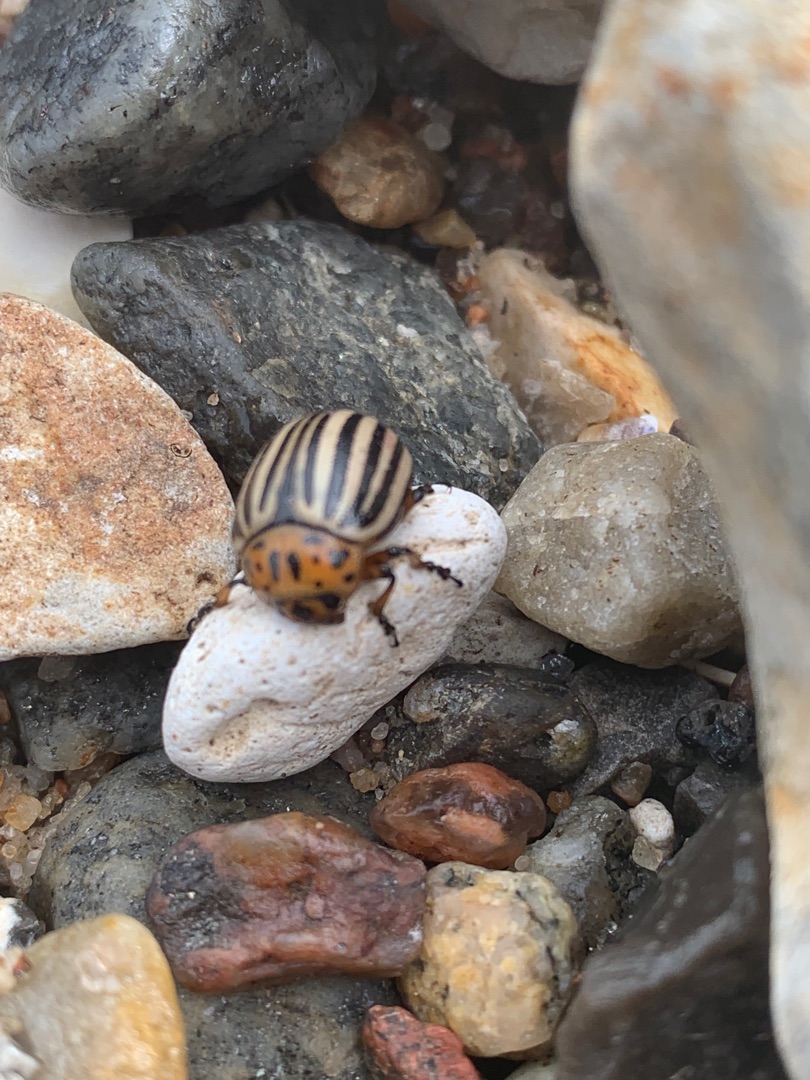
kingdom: Animalia
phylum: Arthropoda
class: Insecta
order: Coleoptera
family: Chrysomelidae
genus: Leptinotarsa
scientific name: Leptinotarsa decemlineata
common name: Coloradobille
